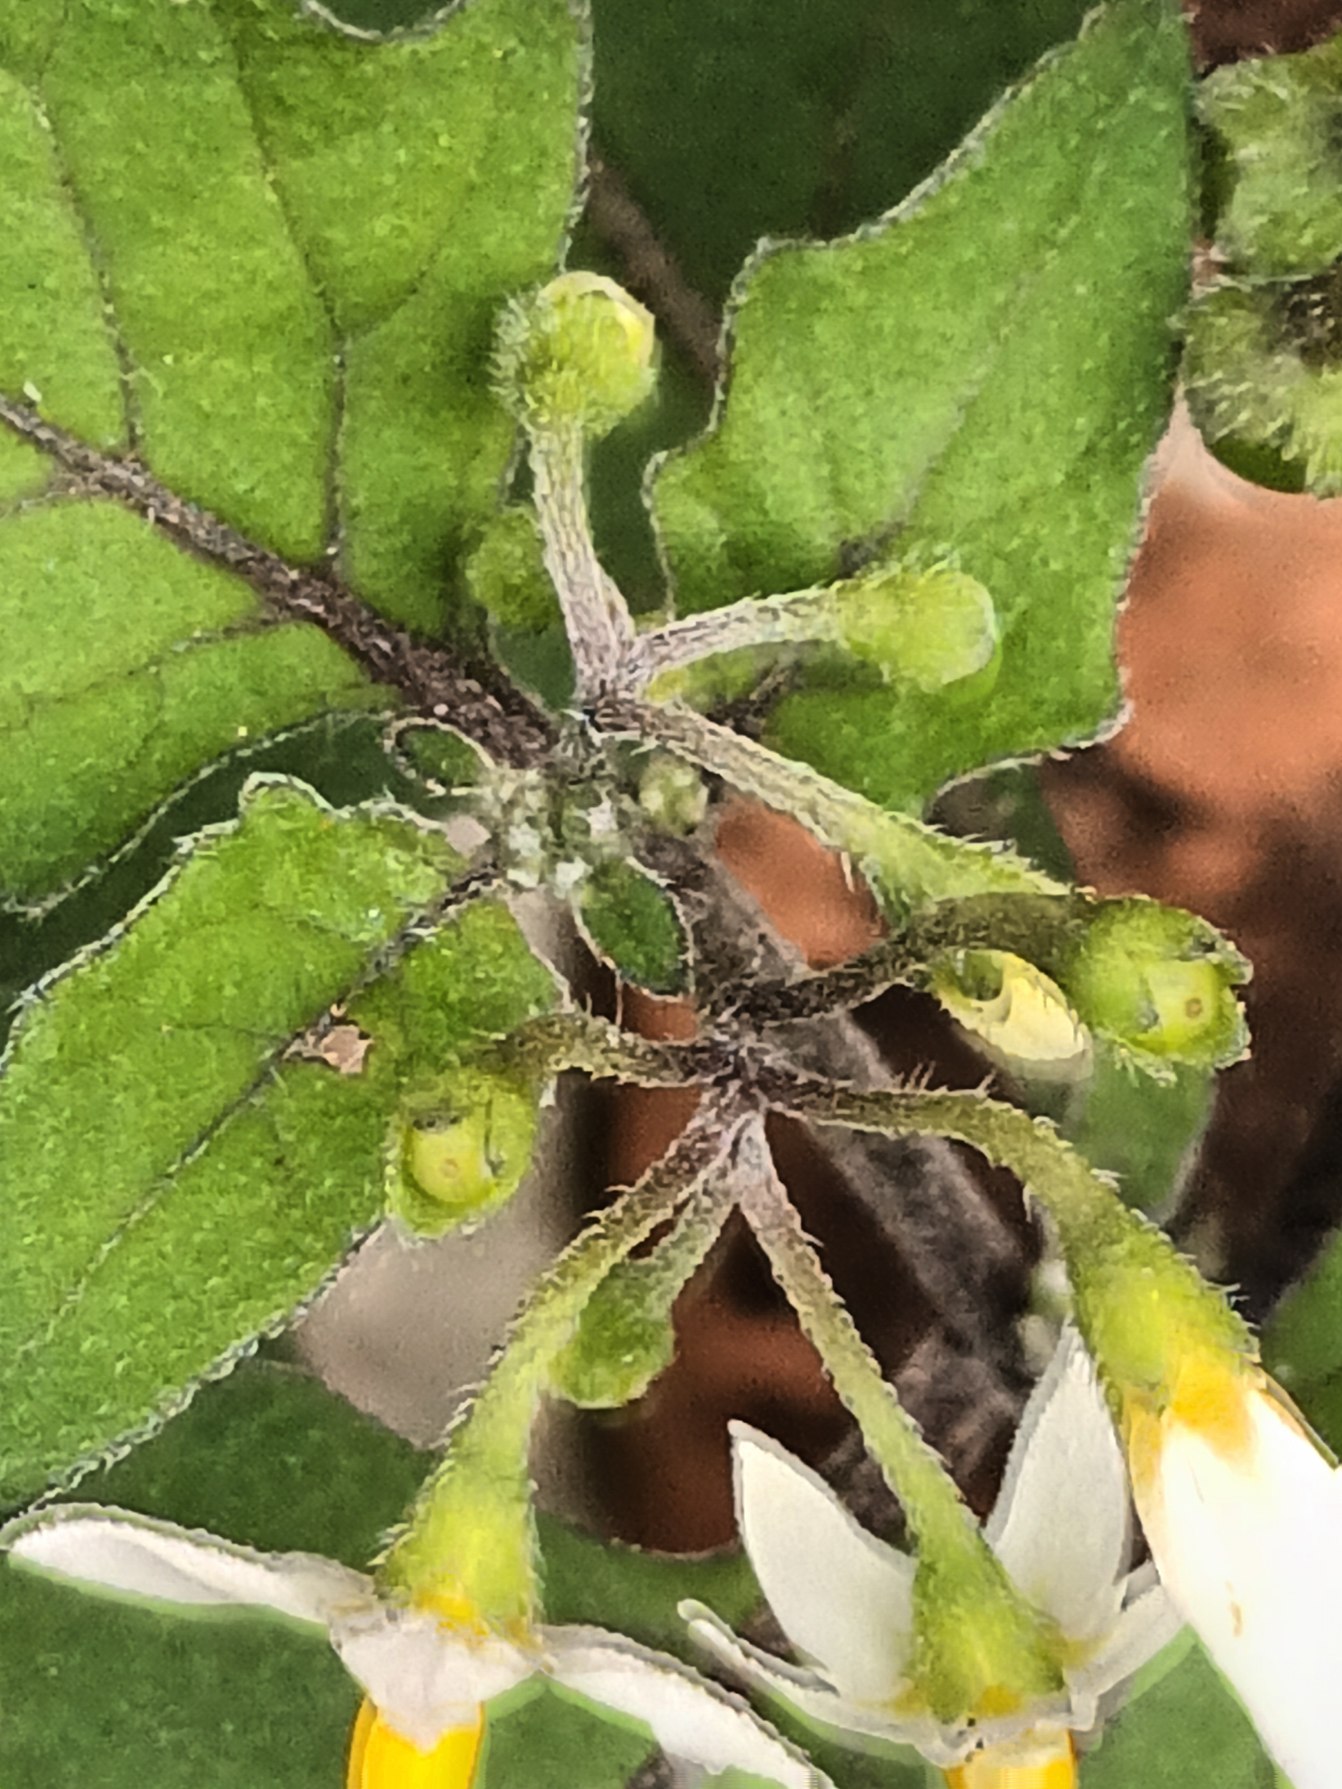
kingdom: Plantae
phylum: Tracheophyta
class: Magnoliopsida
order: Solanales
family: Solanaceae
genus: Solanum
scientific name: Solanum nigrum
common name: Sort natskygge
